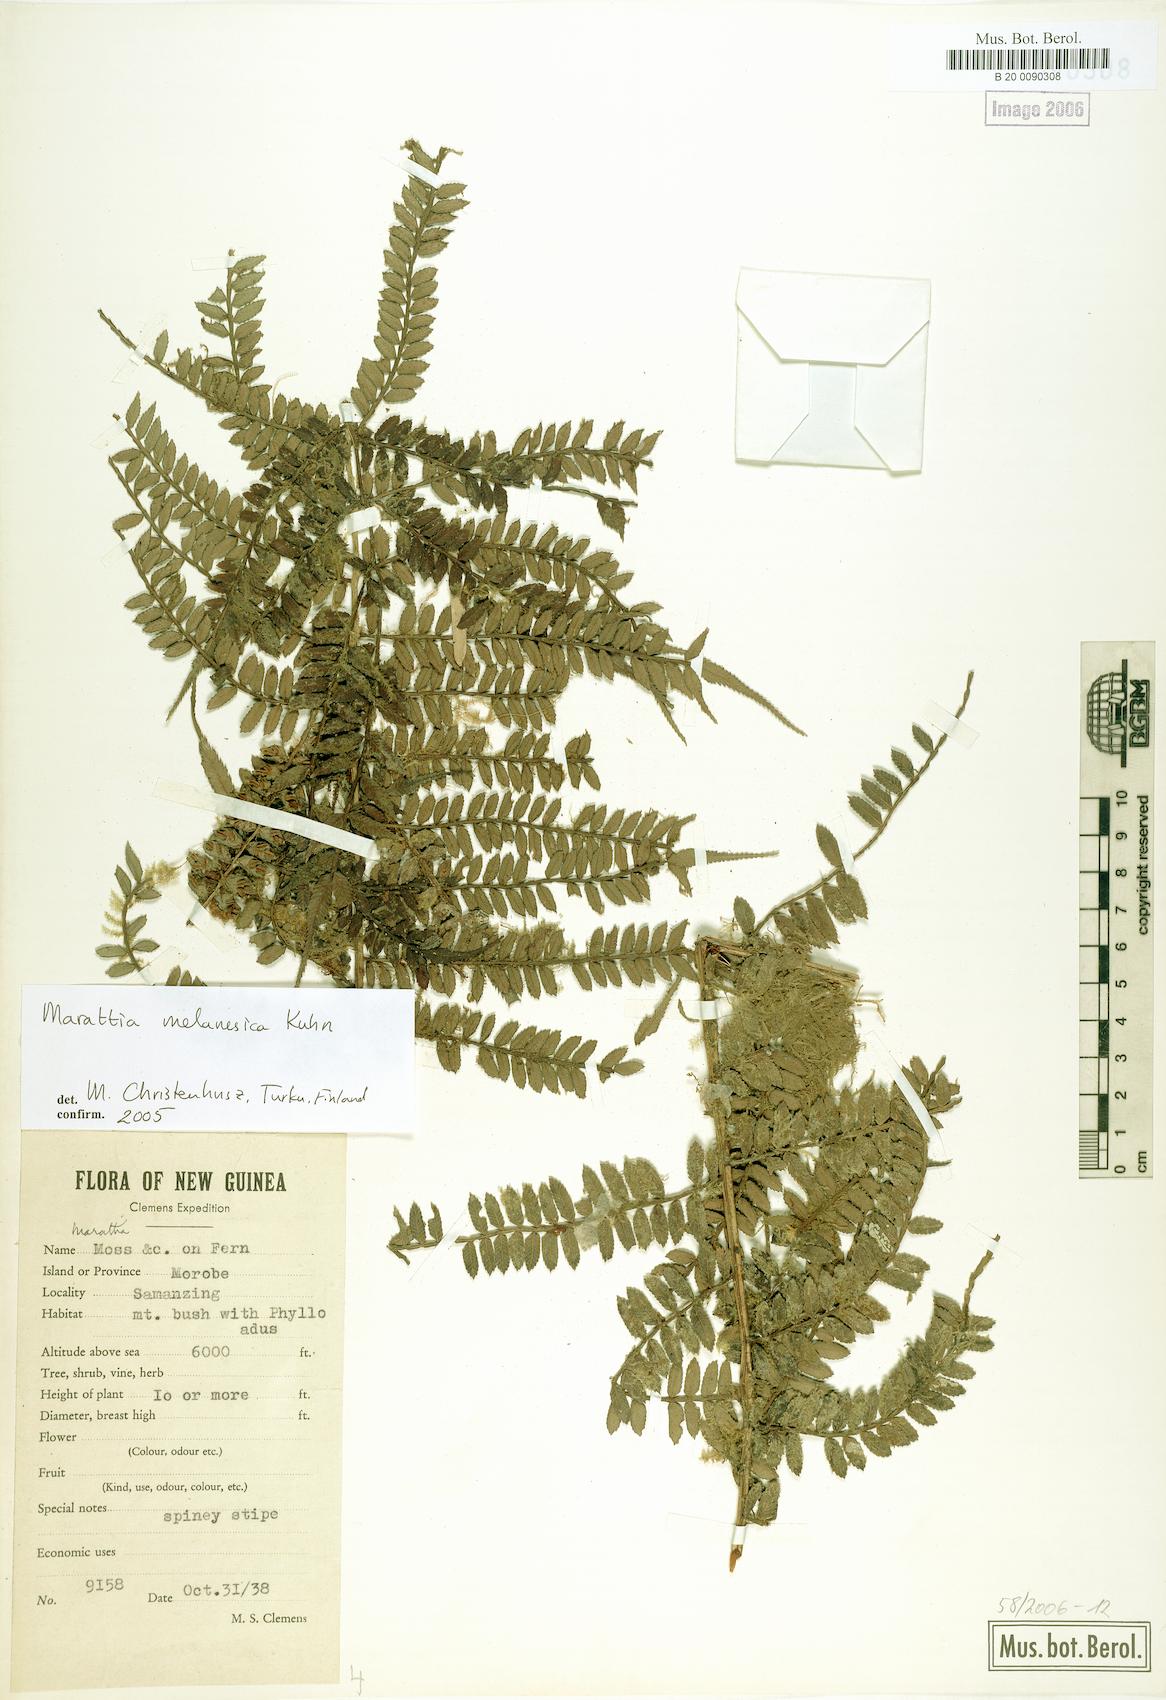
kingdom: Plantae
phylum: Tracheophyta
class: Polypodiopsida
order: Marattiales
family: Marattiaceae
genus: Ptisana
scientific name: Ptisana melanesica
